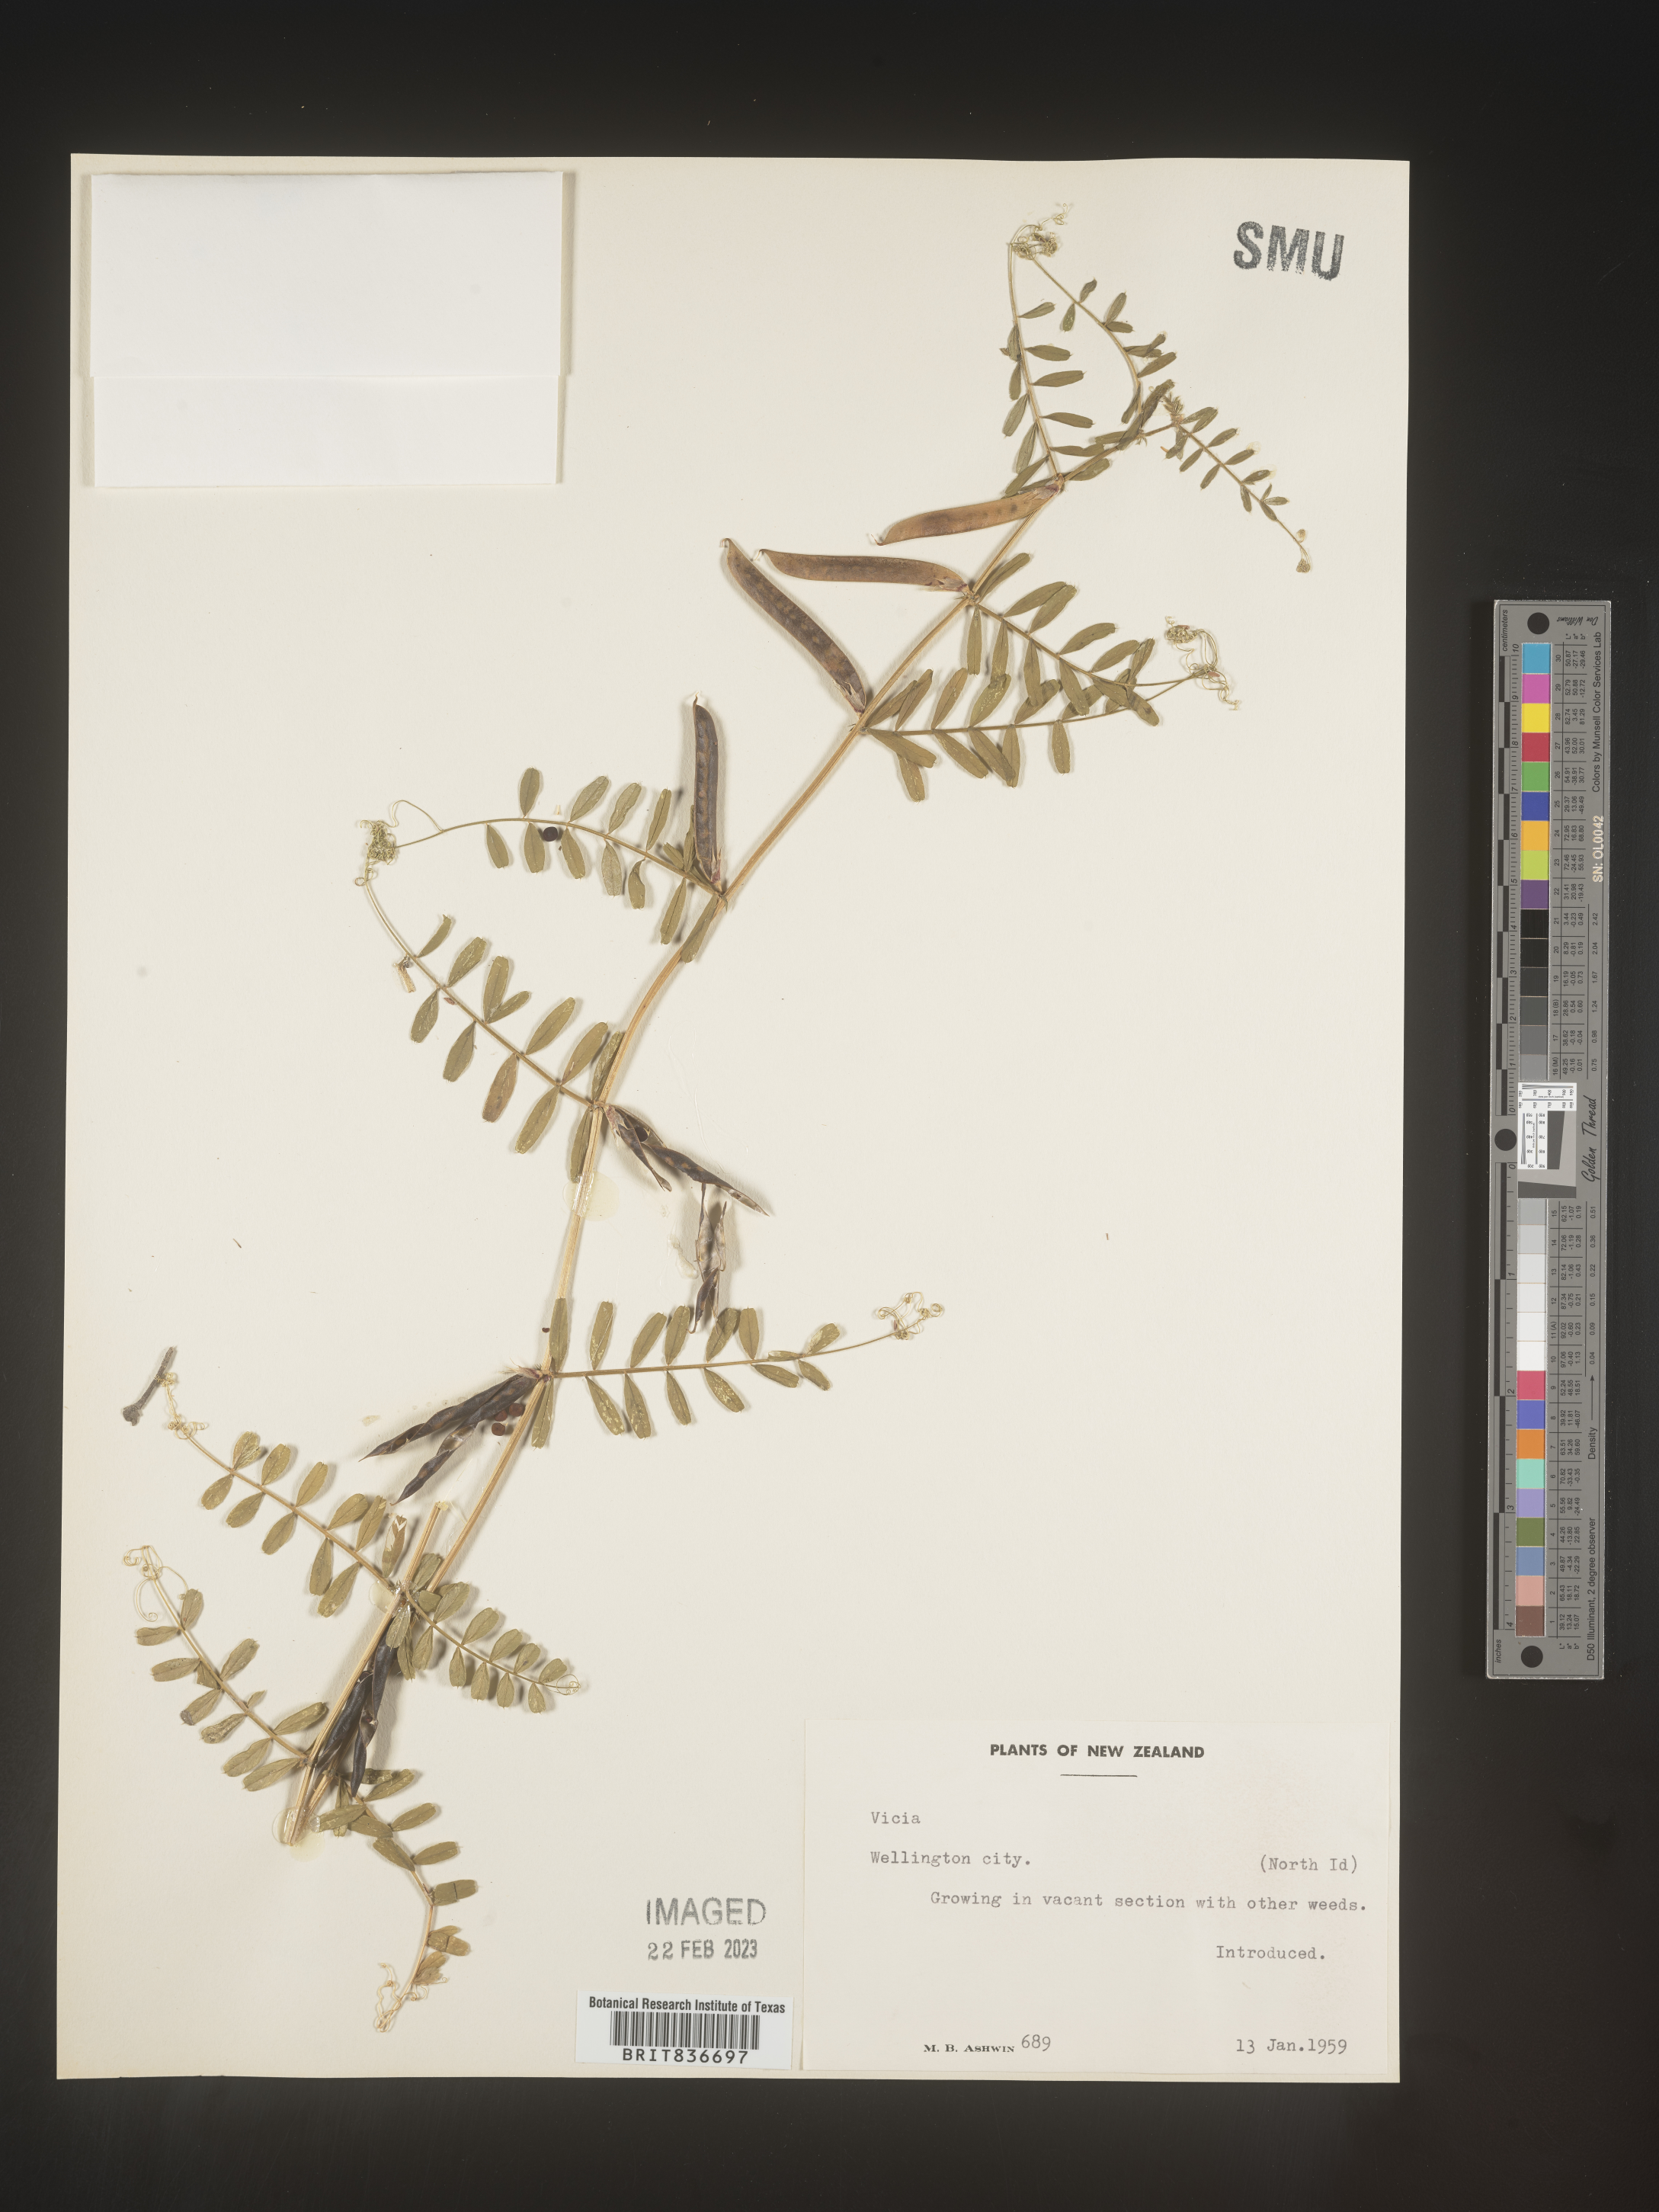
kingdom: Plantae
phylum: Tracheophyta
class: Magnoliopsida
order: Fabales
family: Fabaceae
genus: Vicia
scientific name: Vicia
